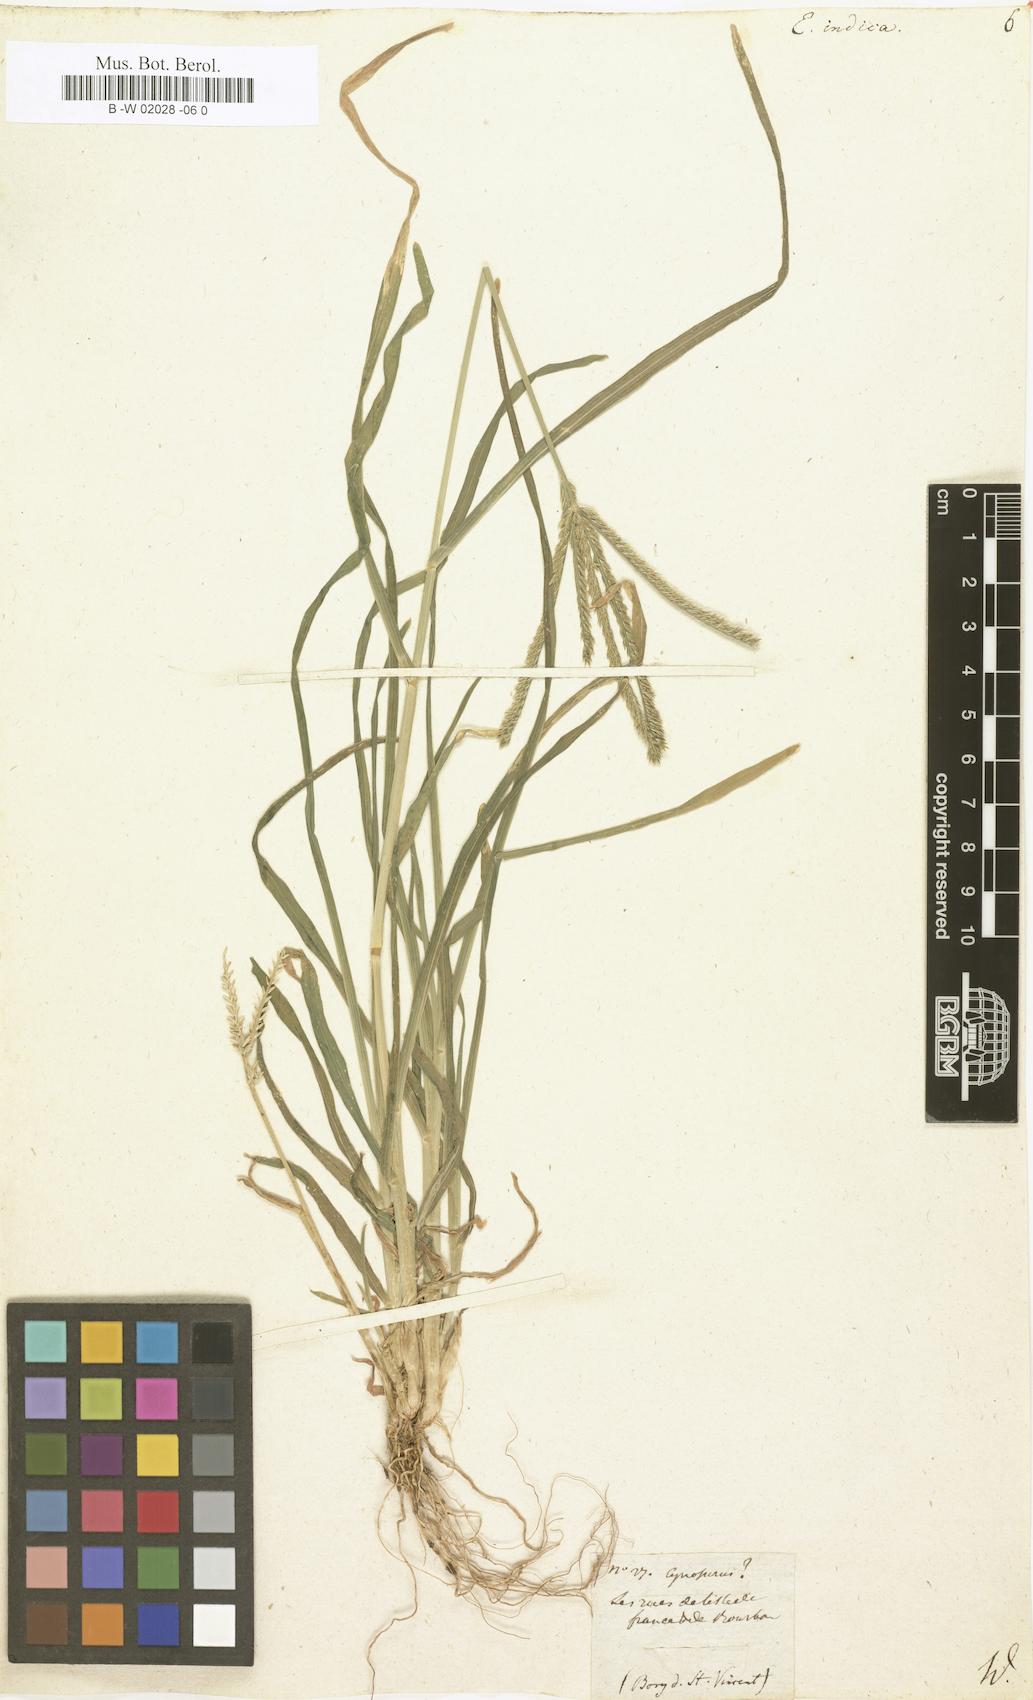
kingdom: Plantae
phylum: Tracheophyta
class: Liliopsida
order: Poales
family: Poaceae
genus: Eleusine
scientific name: Eleusine indica
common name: Yard-grass
